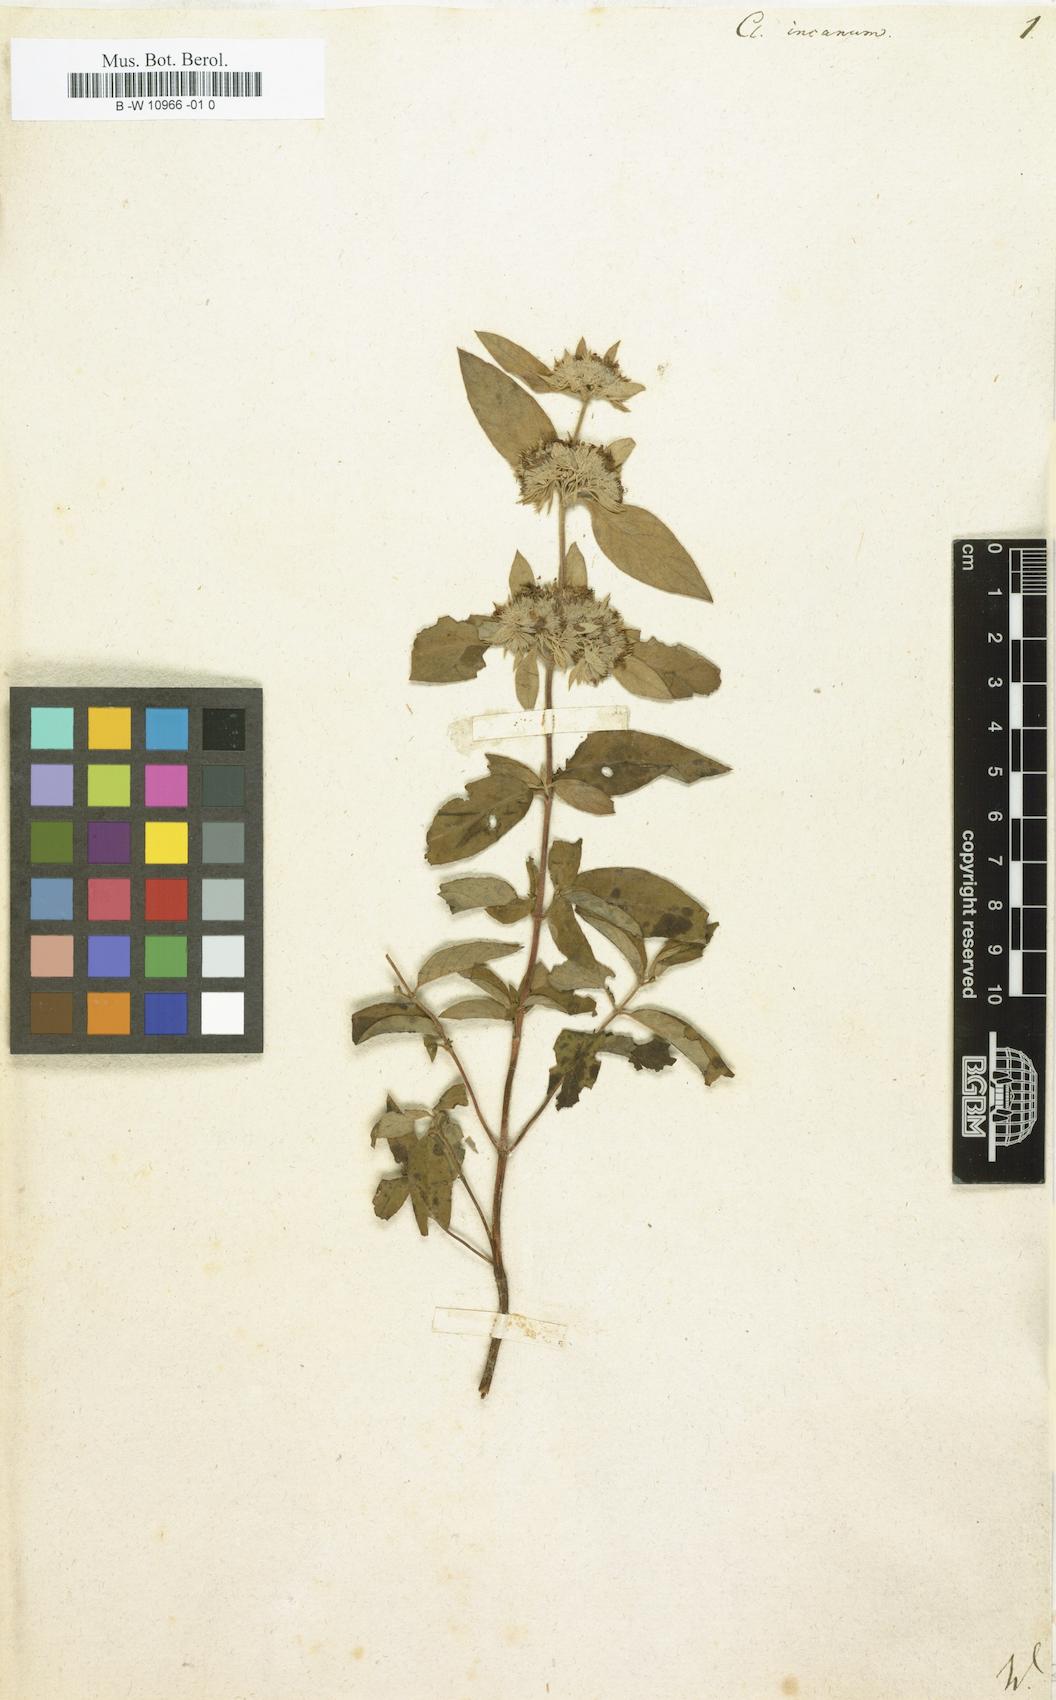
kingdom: Plantae
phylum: Tracheophyta
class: Magnoliopsida
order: Lamiales
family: Lamiaceae
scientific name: Lamiaceae
